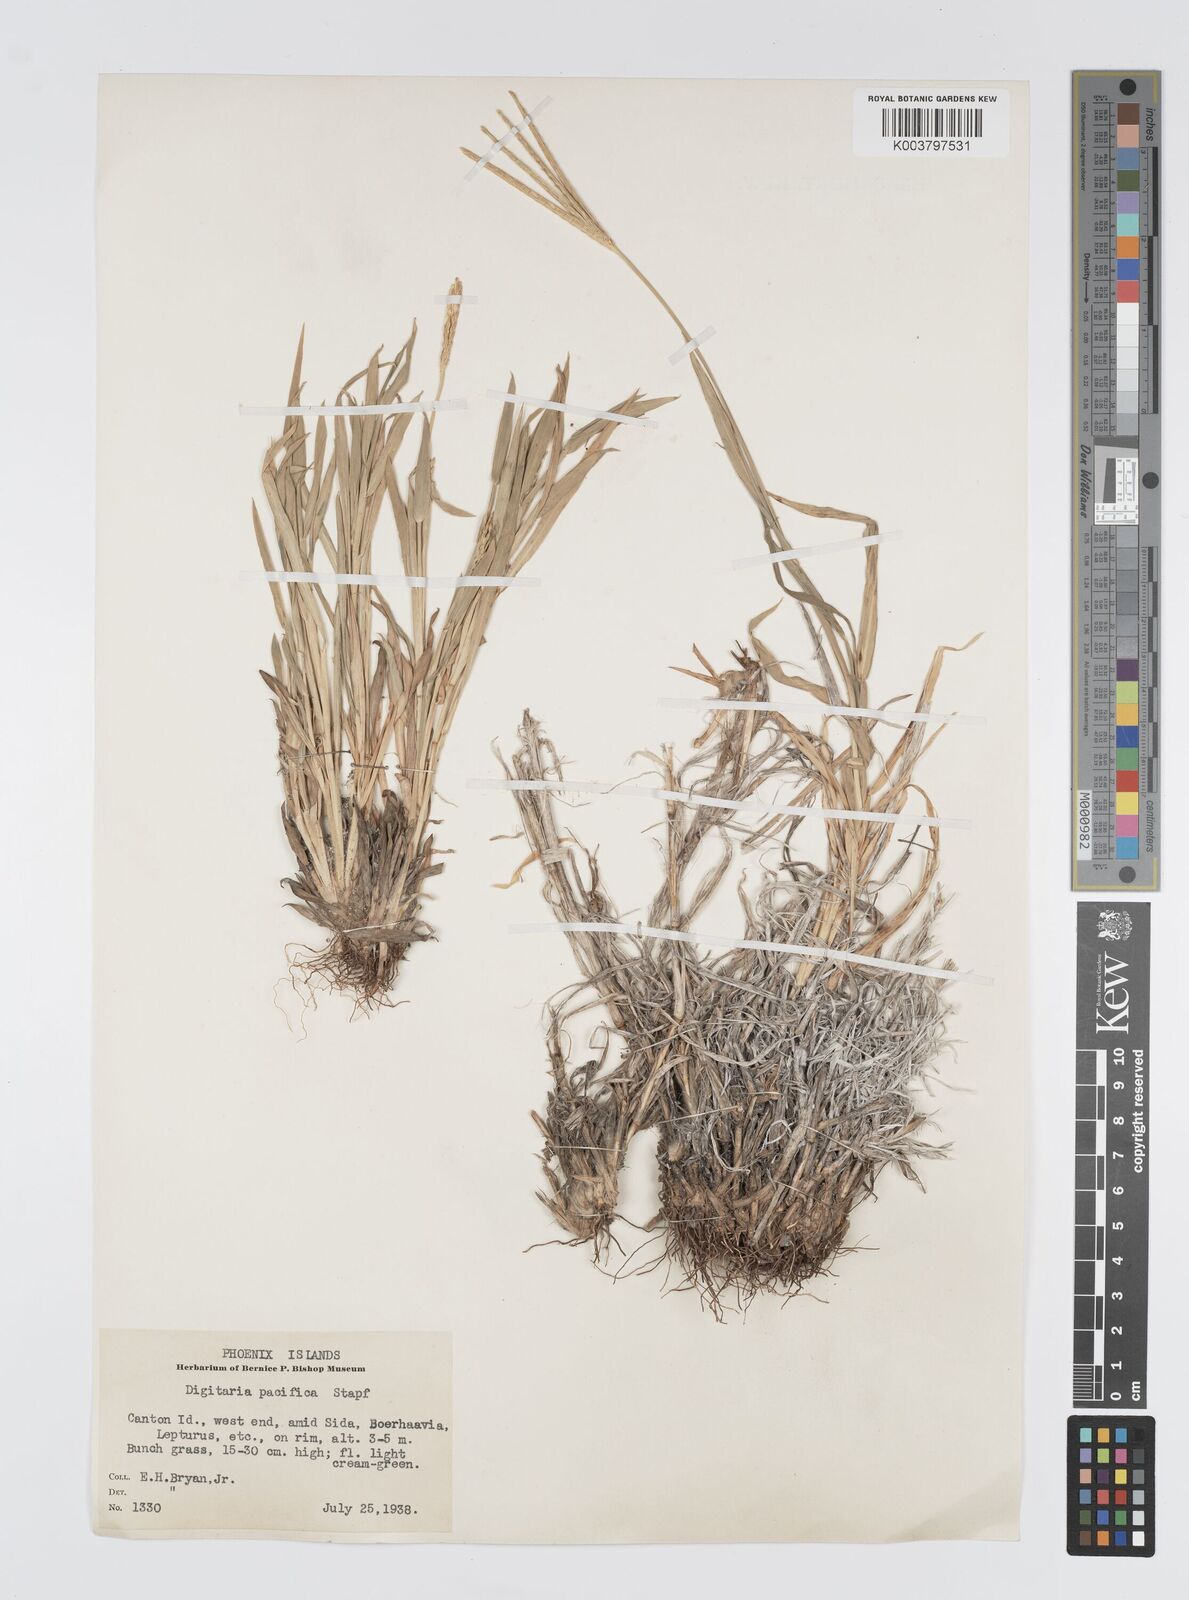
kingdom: Plantae
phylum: Tracheophyta
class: Liliopsida
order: Poales
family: Poaceae
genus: Digitaria
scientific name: Digitaria stenotaphrodes
